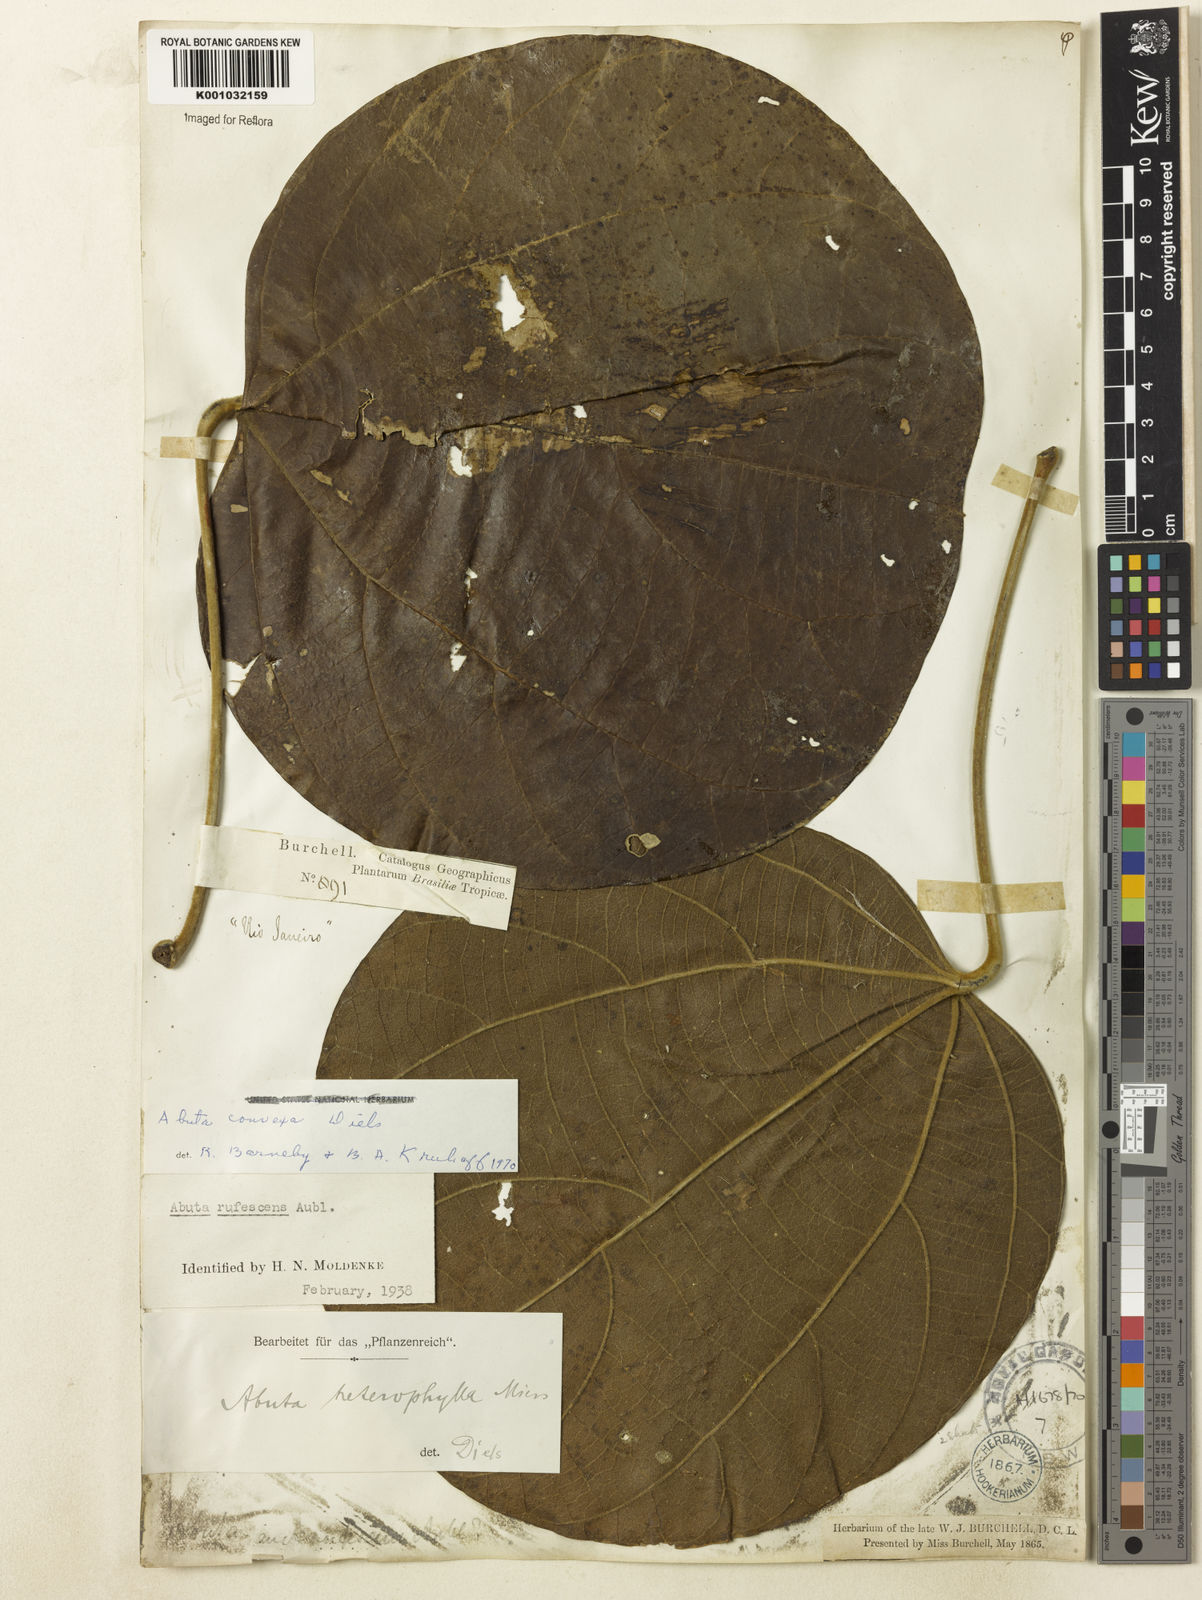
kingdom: Plantae
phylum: Tracheophyta
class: Magnoliopsida
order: Ranunculales
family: Menispermaceae
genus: Abuta
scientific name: Abuta rufescens
